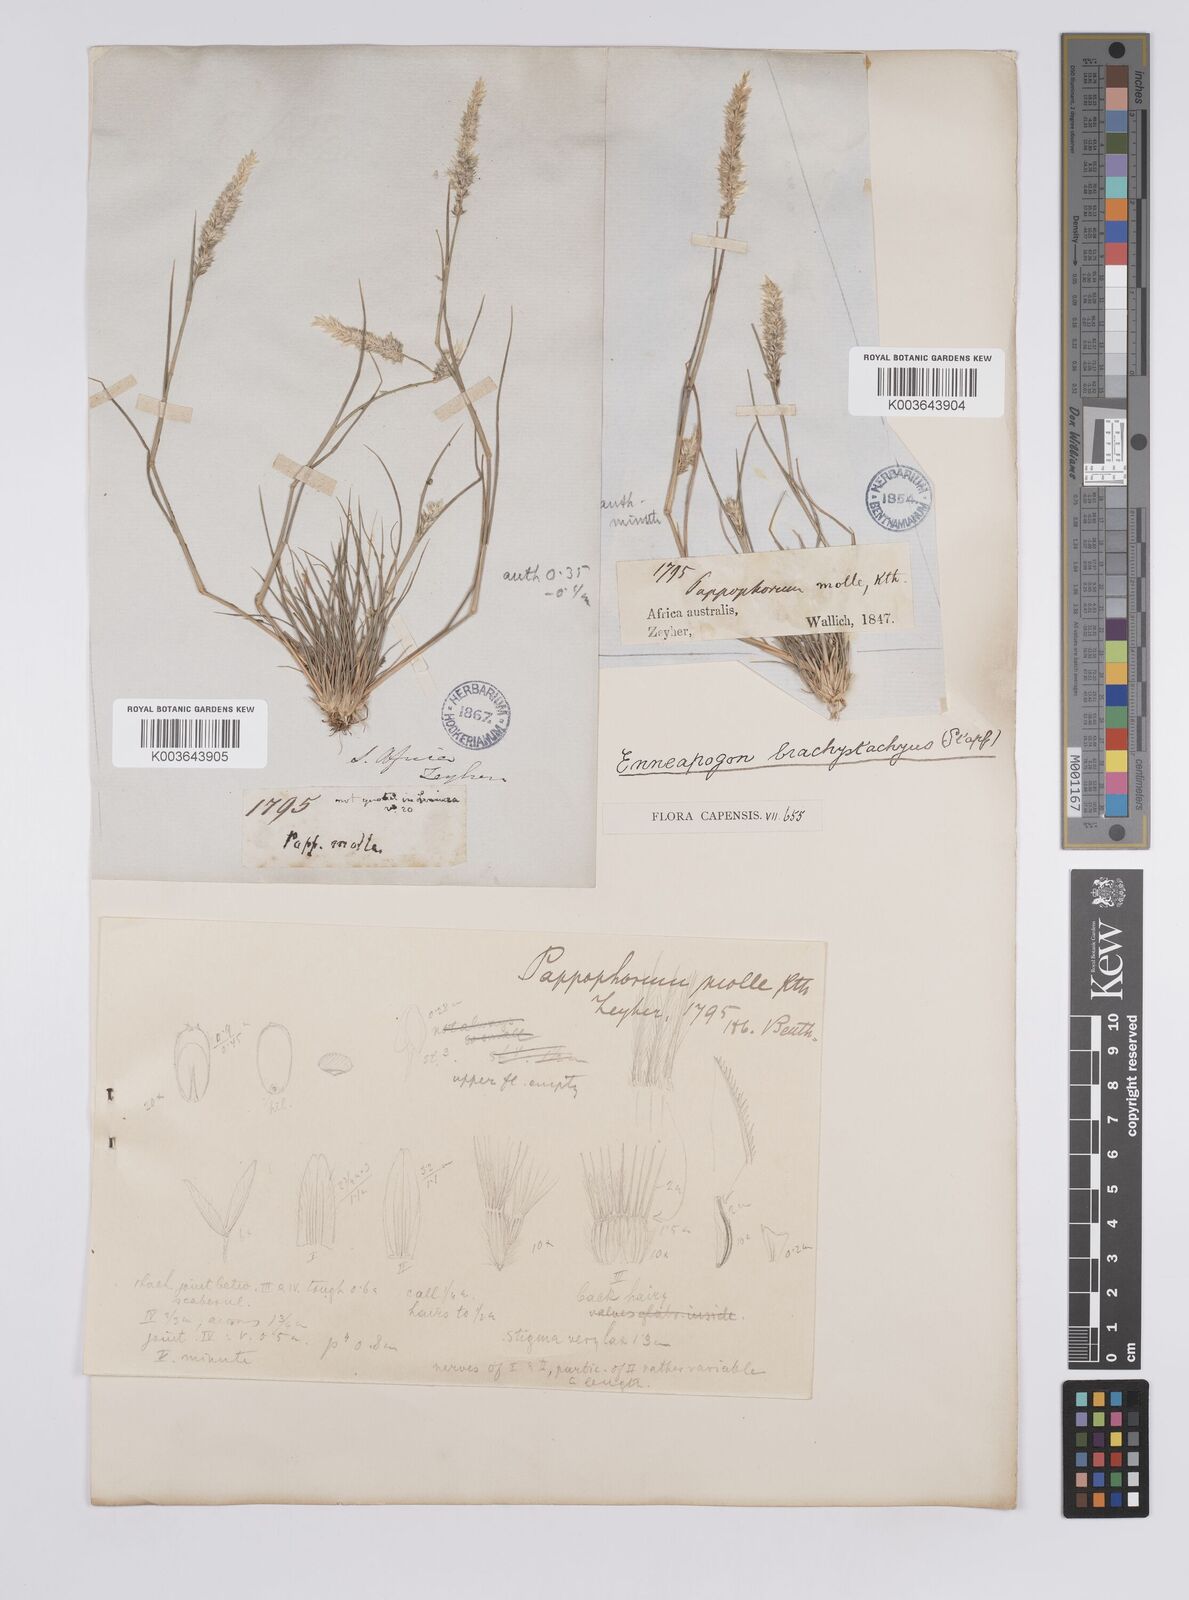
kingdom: Plantae
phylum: Tracheophyta
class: Liliopsida
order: Poales
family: Poaceae
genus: Enneapogon
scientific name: Enneapogon desvauxii
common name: Feather pappus grass
